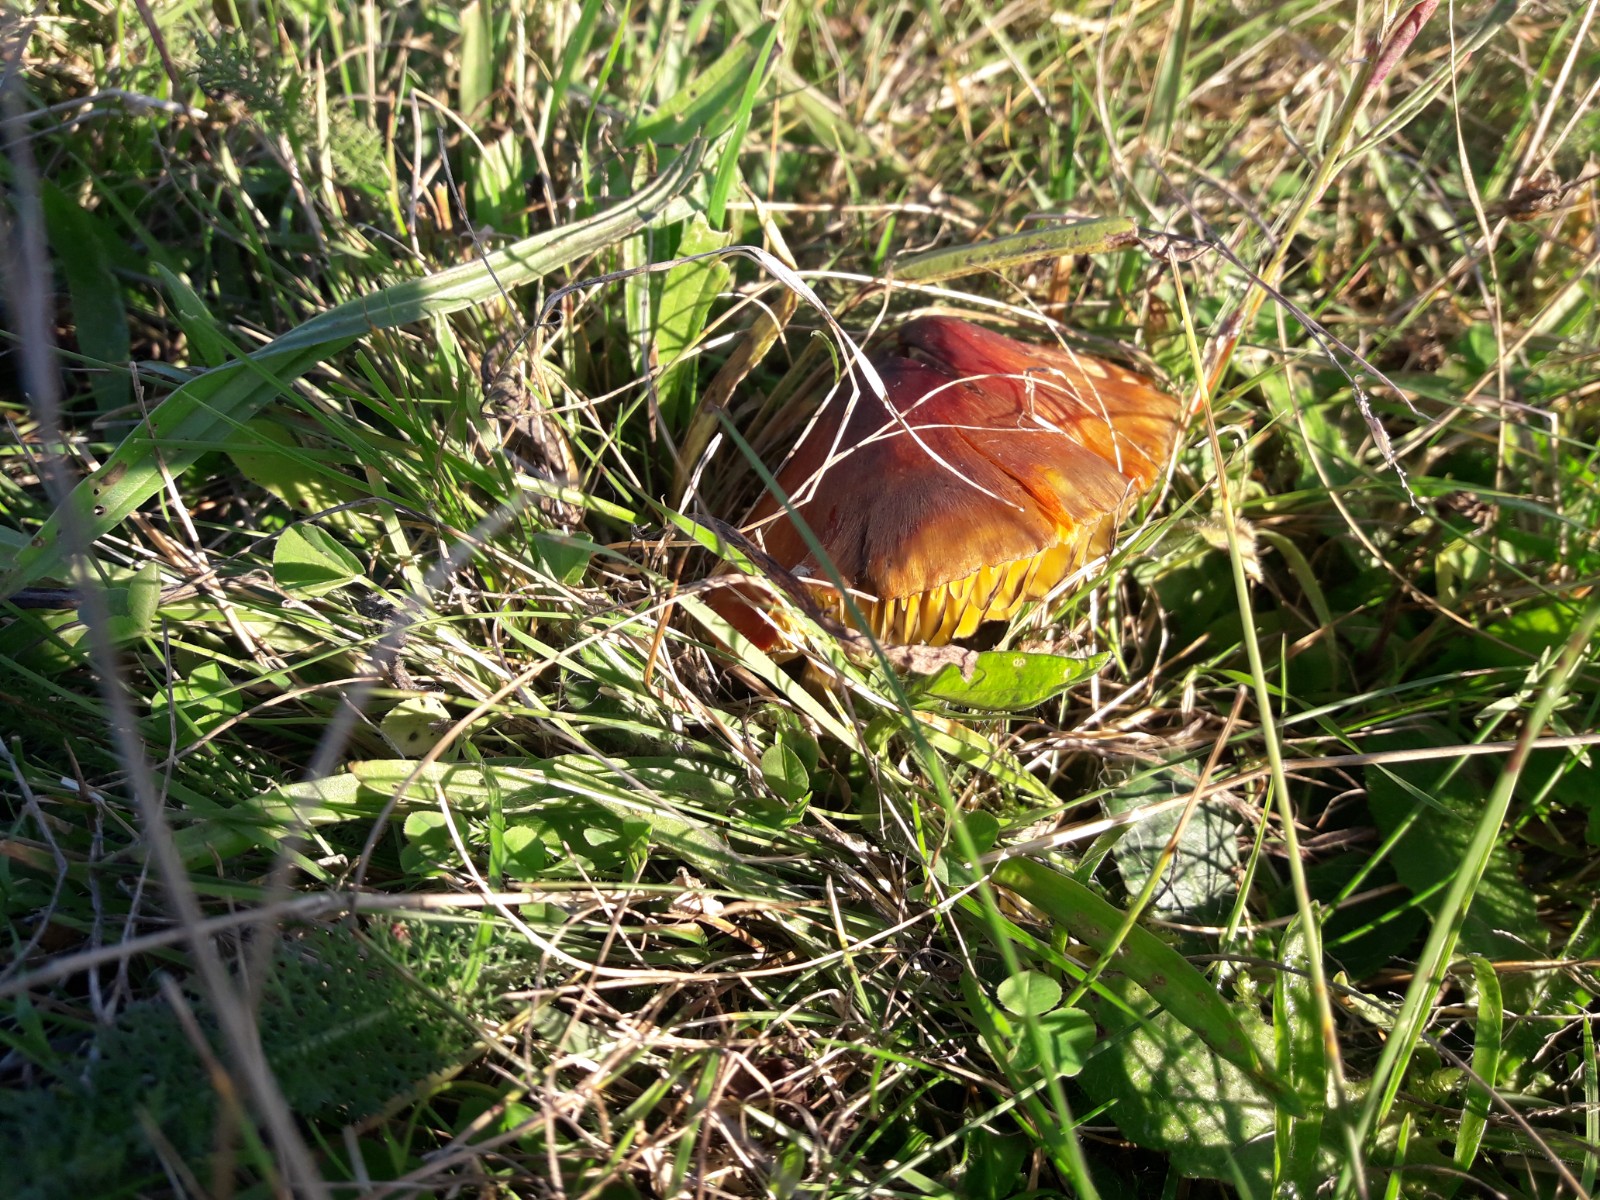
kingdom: Fungi
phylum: Basidiomycota
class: Agaricomycetes
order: Agaricales
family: Hygrophoraceae
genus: Hygrocybe
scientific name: Hygrocybe conica
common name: kegle-vokshat
